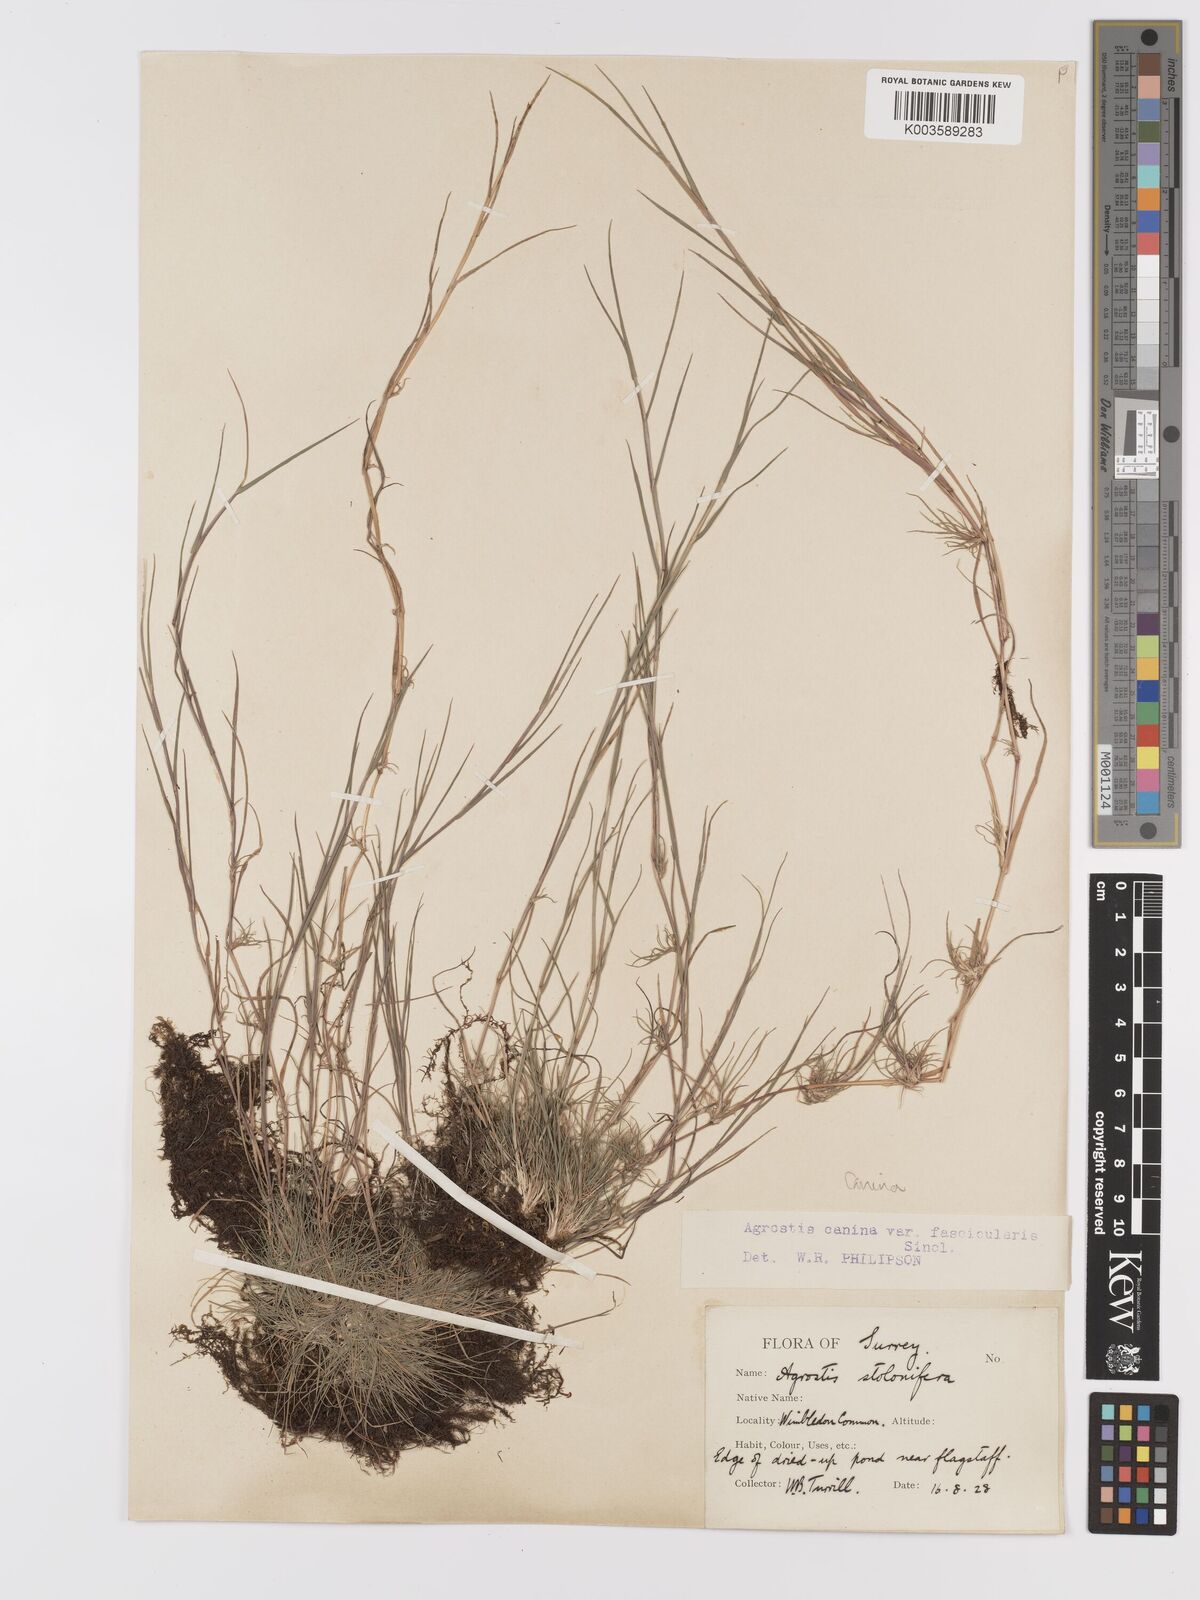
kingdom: Plantae
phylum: Tracheophyta
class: Liliopsida
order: Poales
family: Poaceae
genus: Agrostis
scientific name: Agrostis canina
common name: Velvet bent
